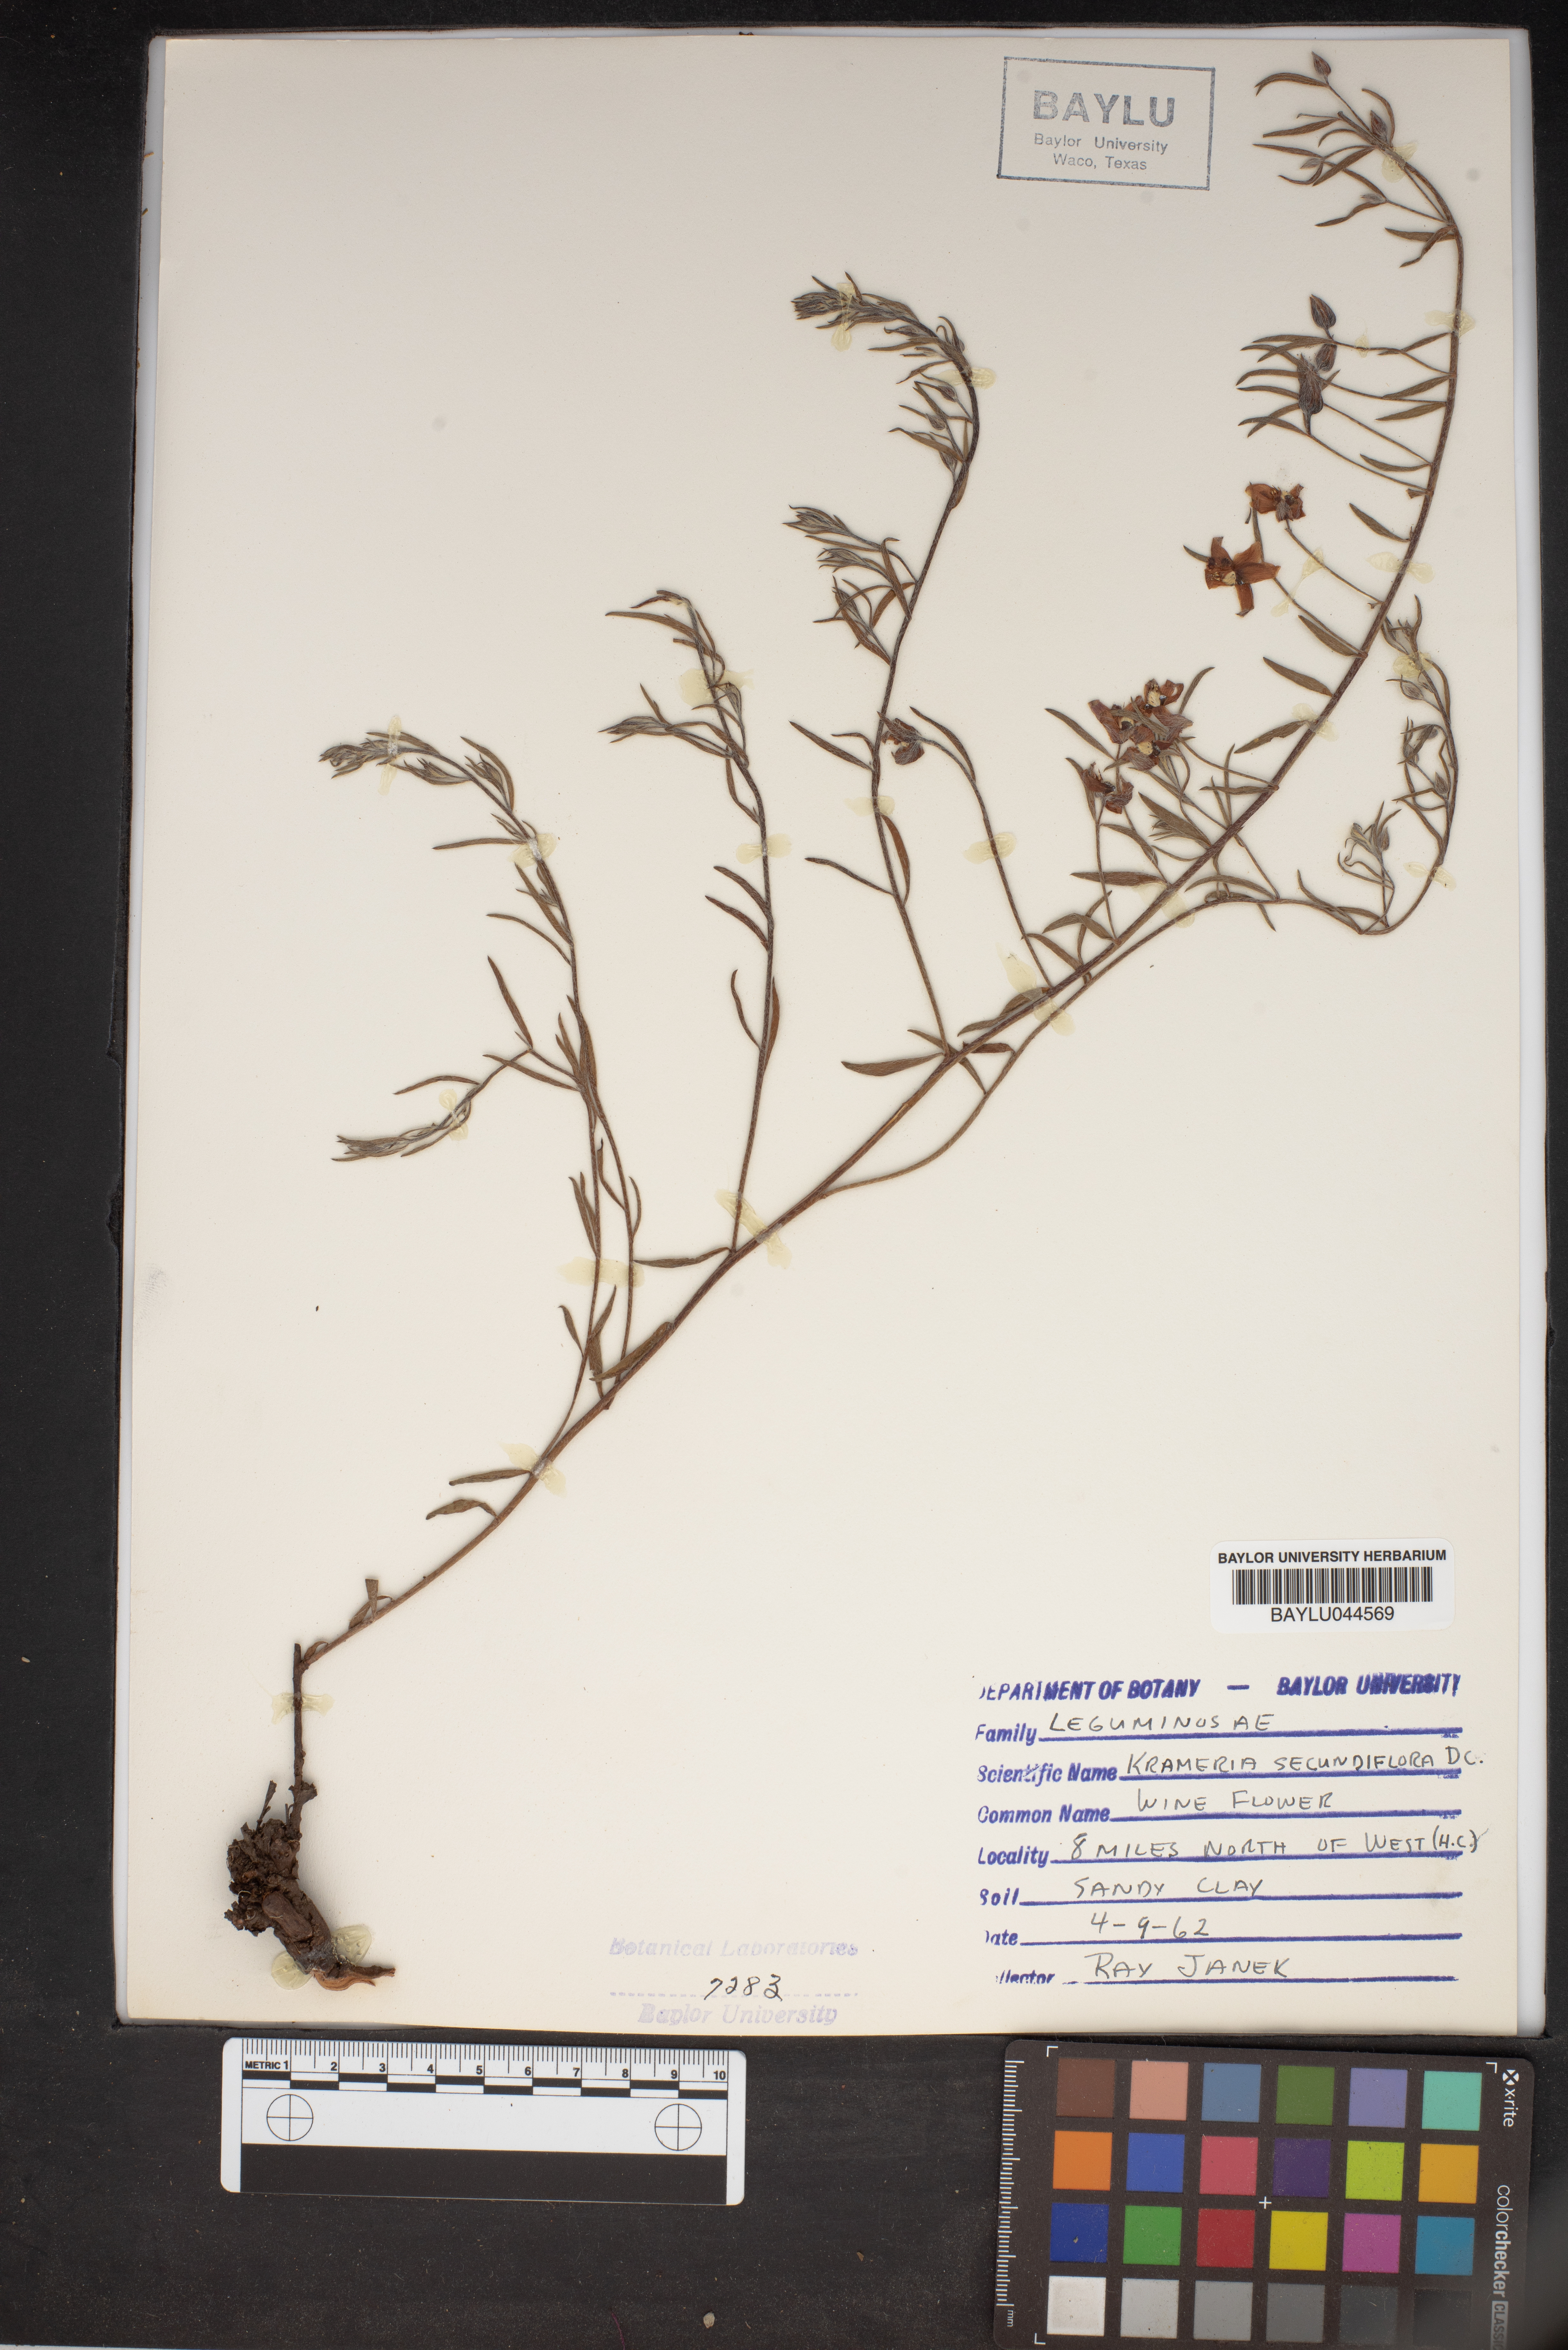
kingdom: Plantae
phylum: Tracheophyta
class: Magnoliopsida
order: Zygophyllales
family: Krameriaceae
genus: Krameria
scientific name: Krameria secundiflora
